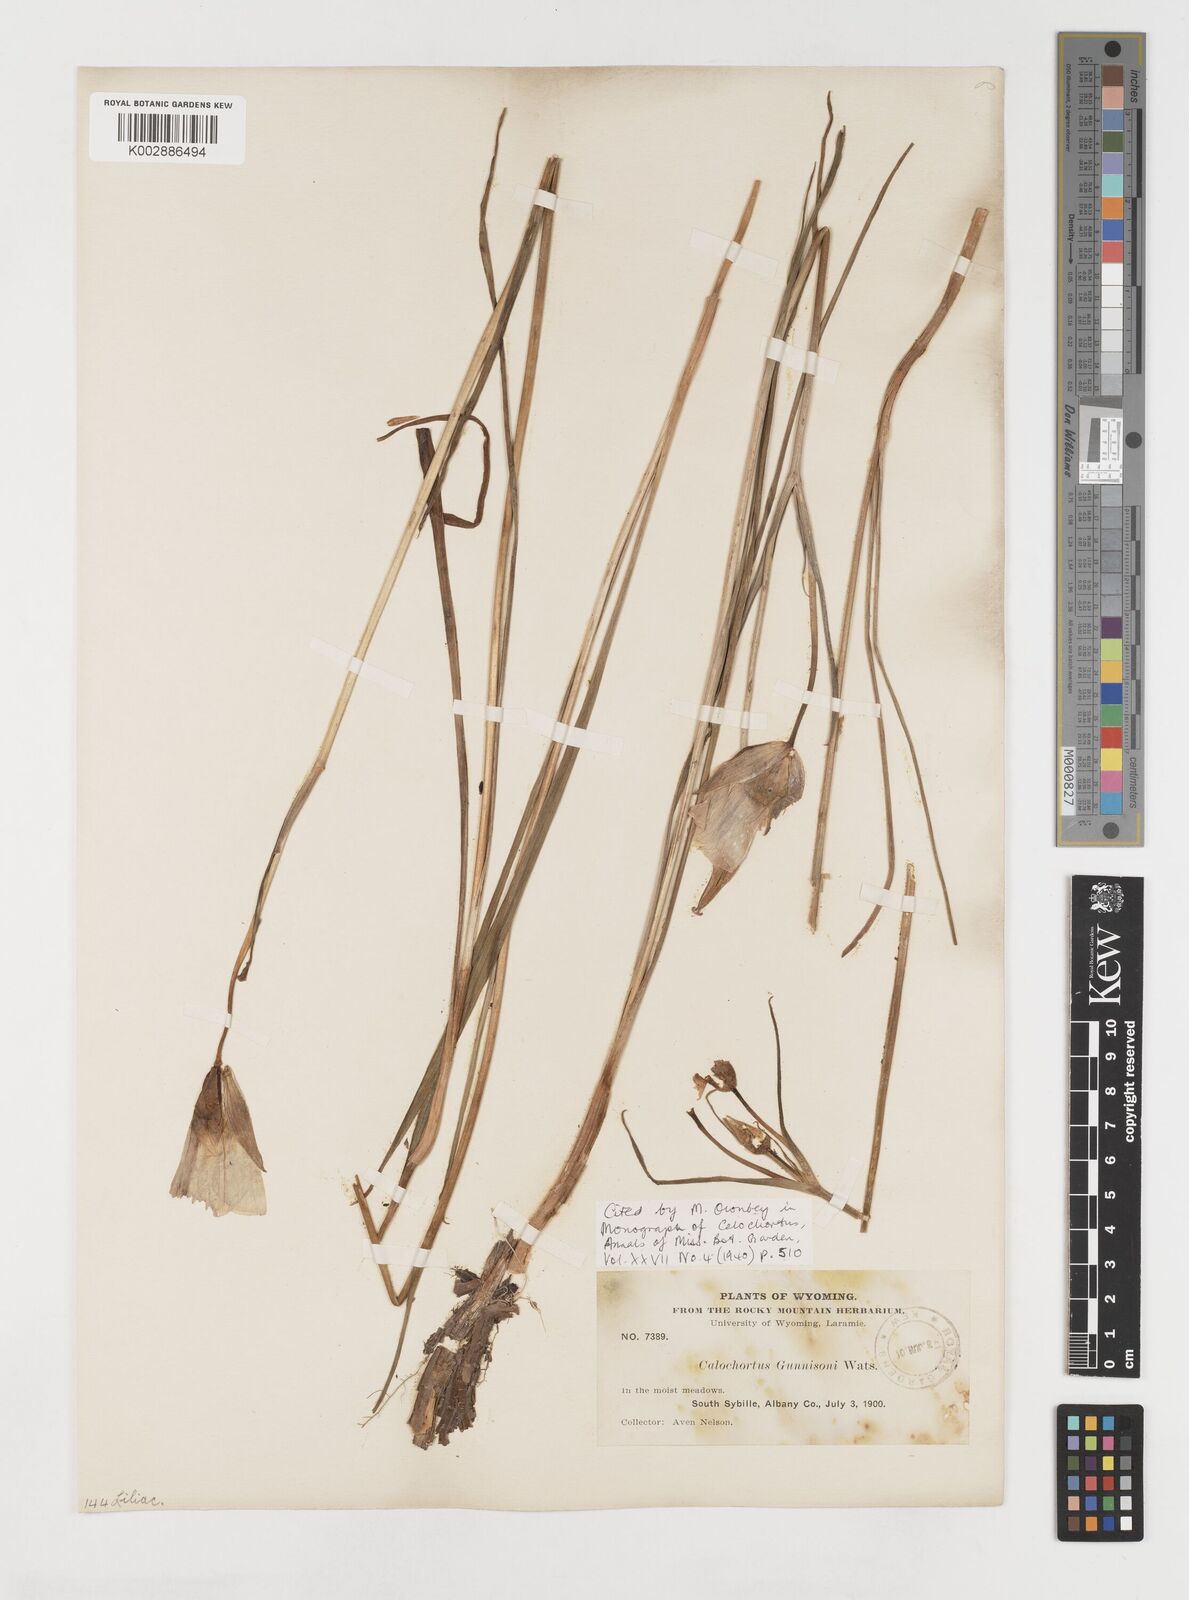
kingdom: Plantae
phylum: Tracheophyta
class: Liliopsida
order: Liliales
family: Liliaceae
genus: Calochortus
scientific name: Calochortus gunnisonii
